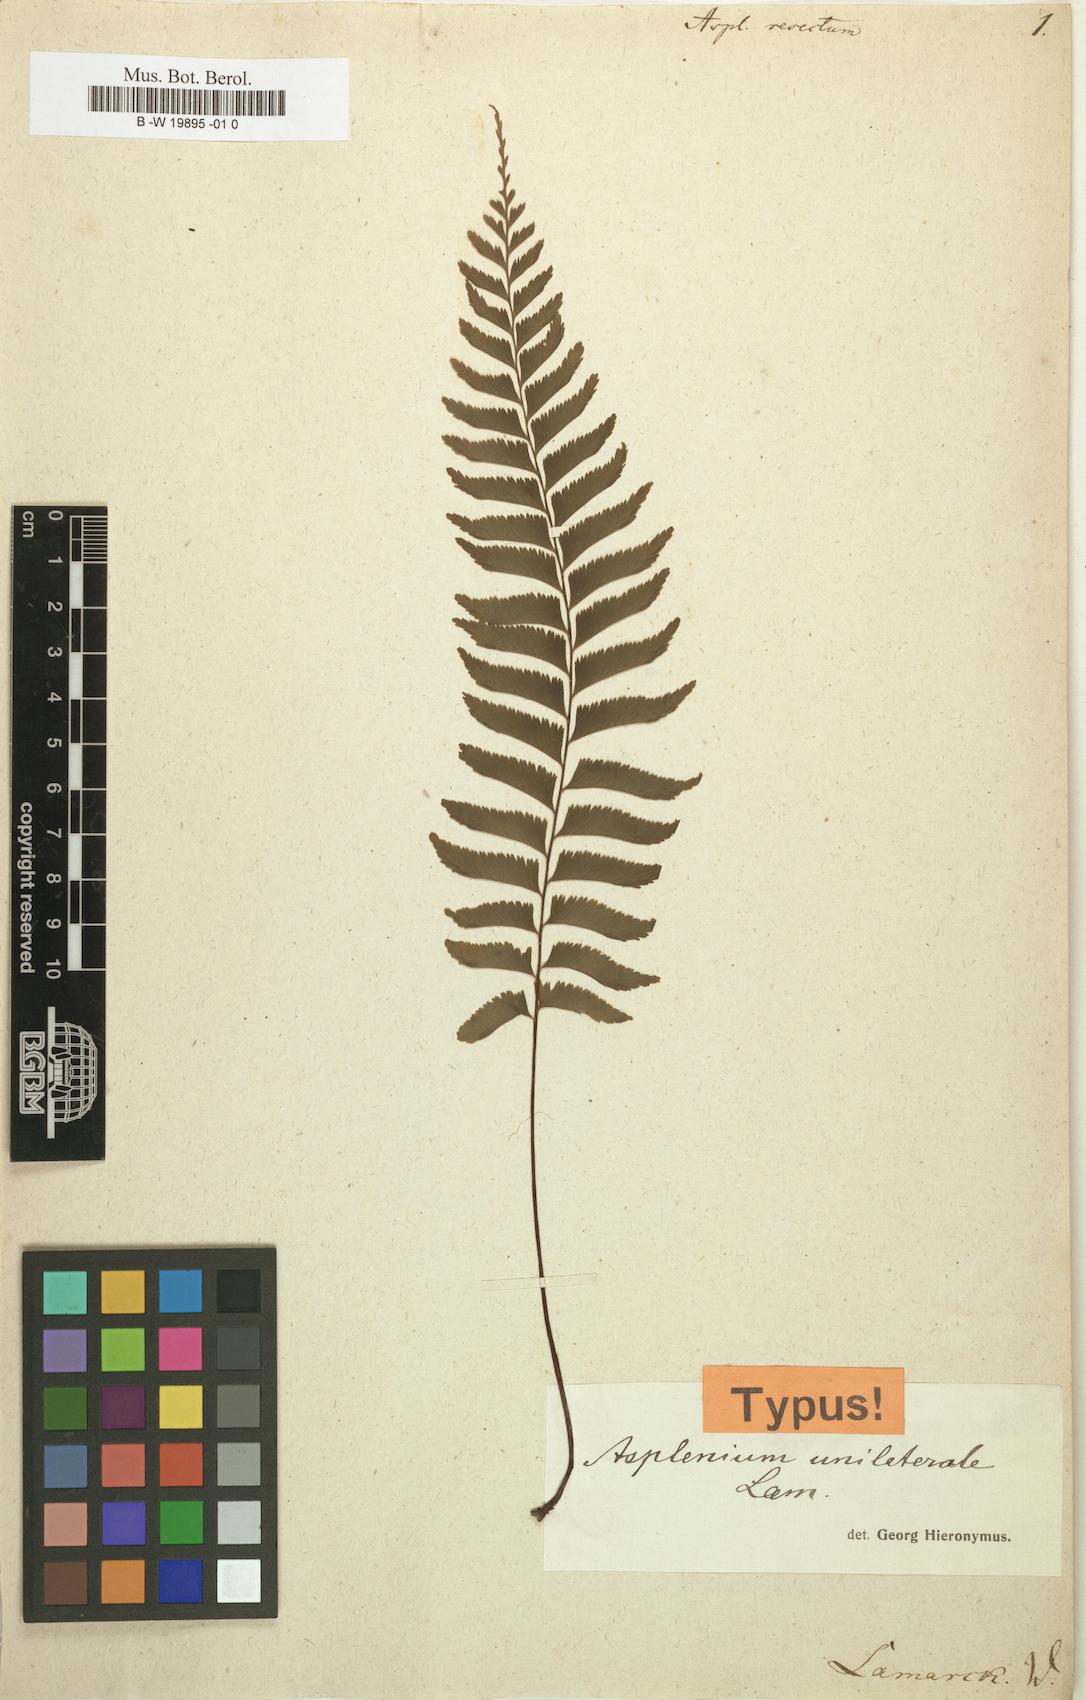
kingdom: Plantae
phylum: Tracheophyta
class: Polypodiopsida
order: Polypodiales
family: Aspleniaceae
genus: Hymenasplenium
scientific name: Hymenasplenium unilaterale
